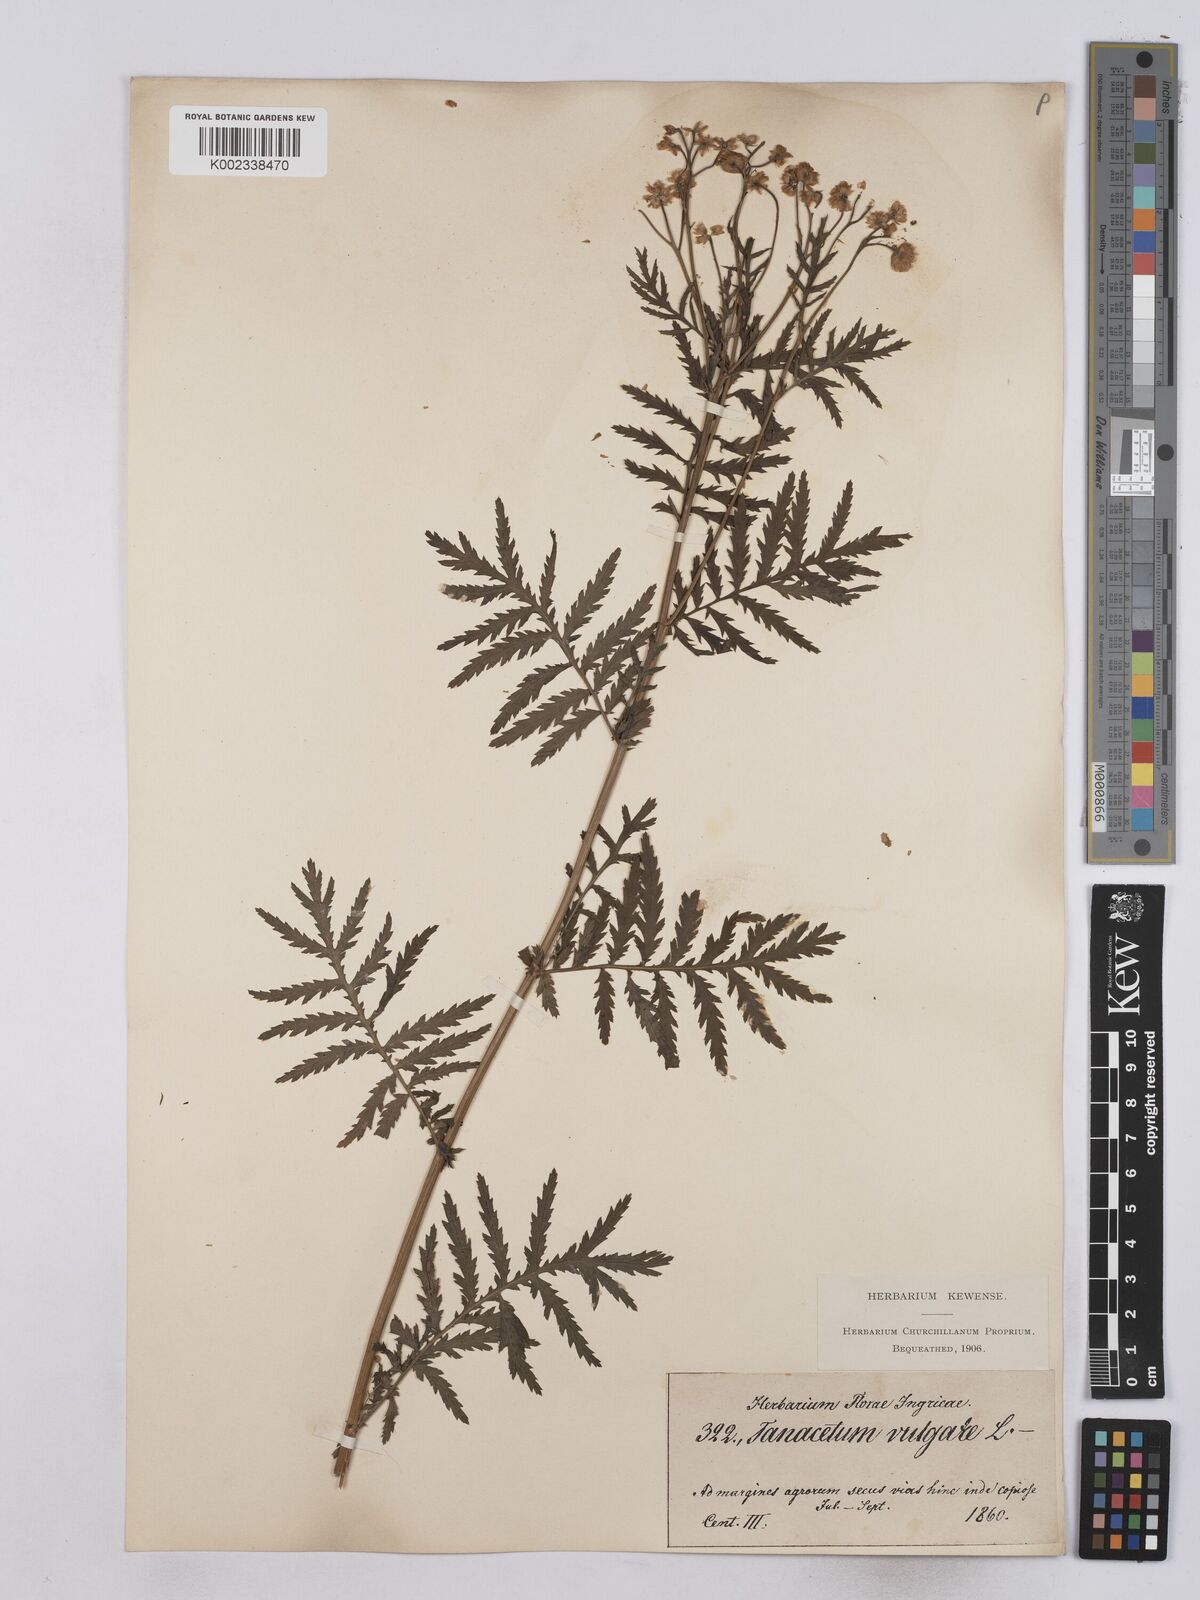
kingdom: Plantae
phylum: Tracheophyta
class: Magnoliopsida
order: Asterales
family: Asteraceae
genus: Tanacetum
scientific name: Tanacetum vulgare
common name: Common tansy
